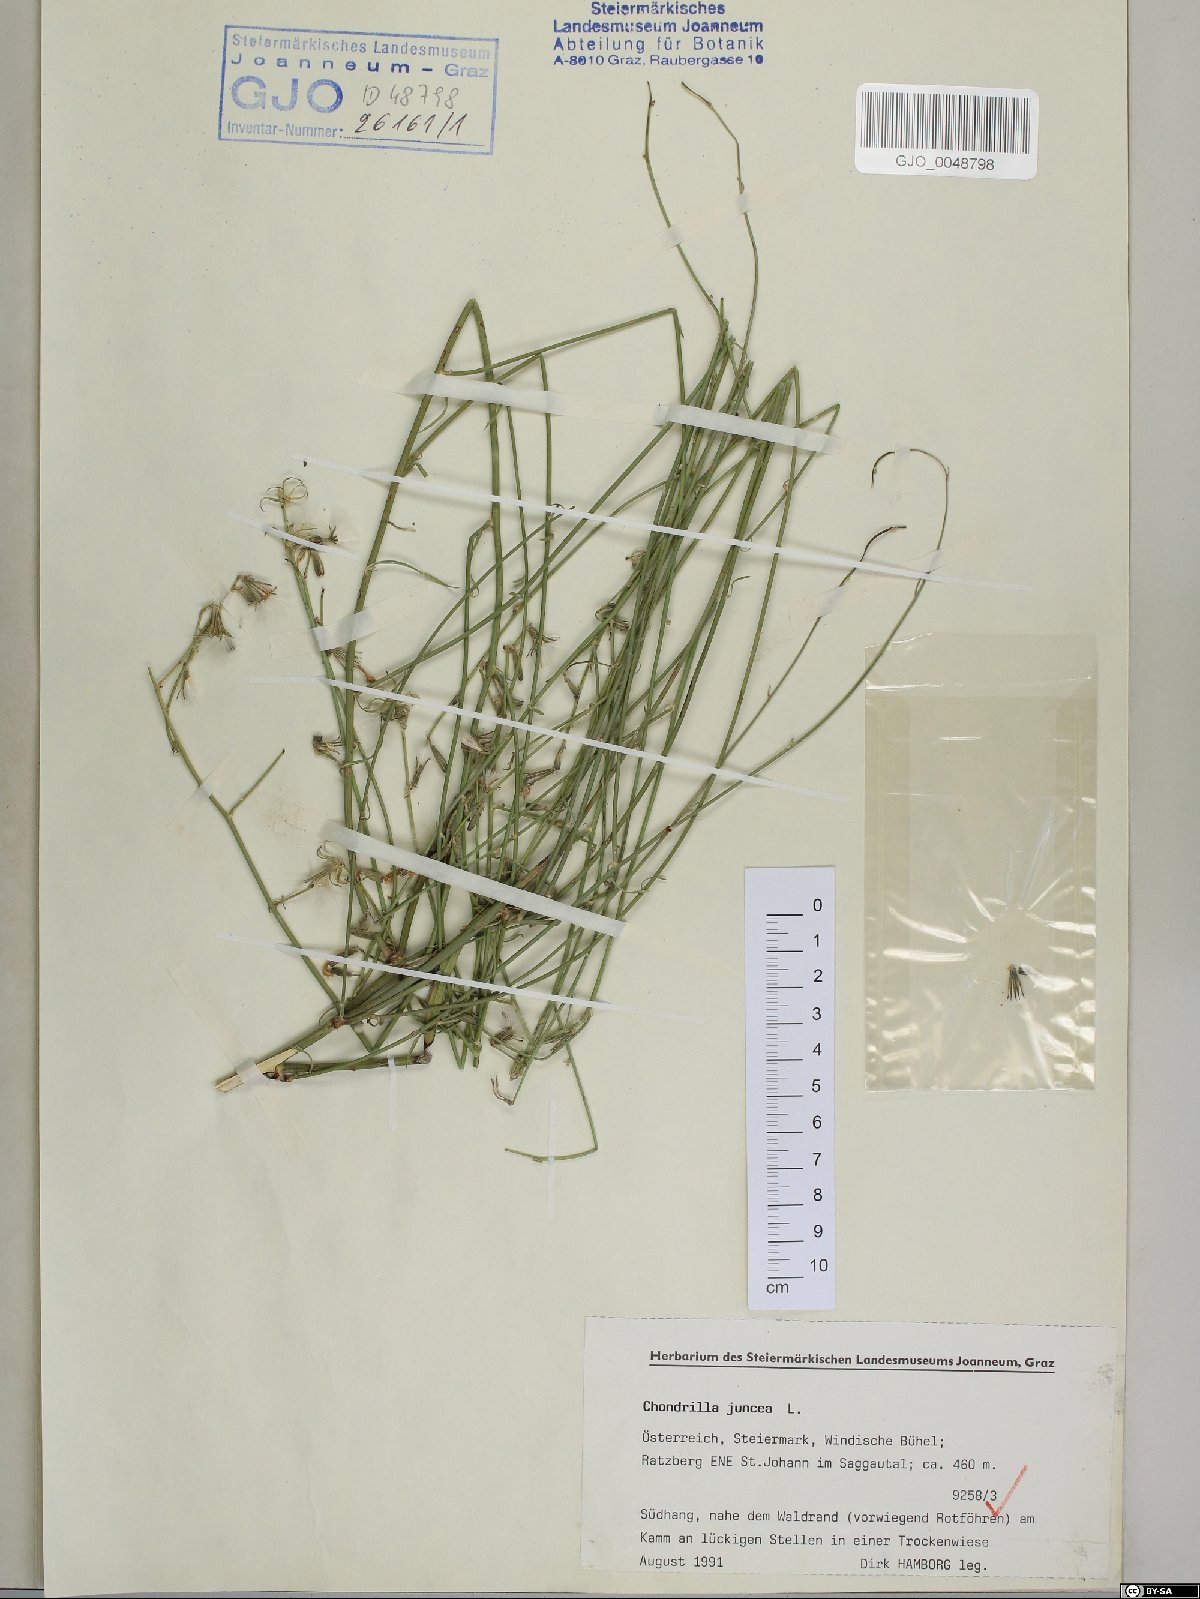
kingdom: Plantae
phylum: Tracheophyta
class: Magnoliopsida
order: Asterales
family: Asteraceae
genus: Chondrilla
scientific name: Chondrilla juncea
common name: Skeleton weed
